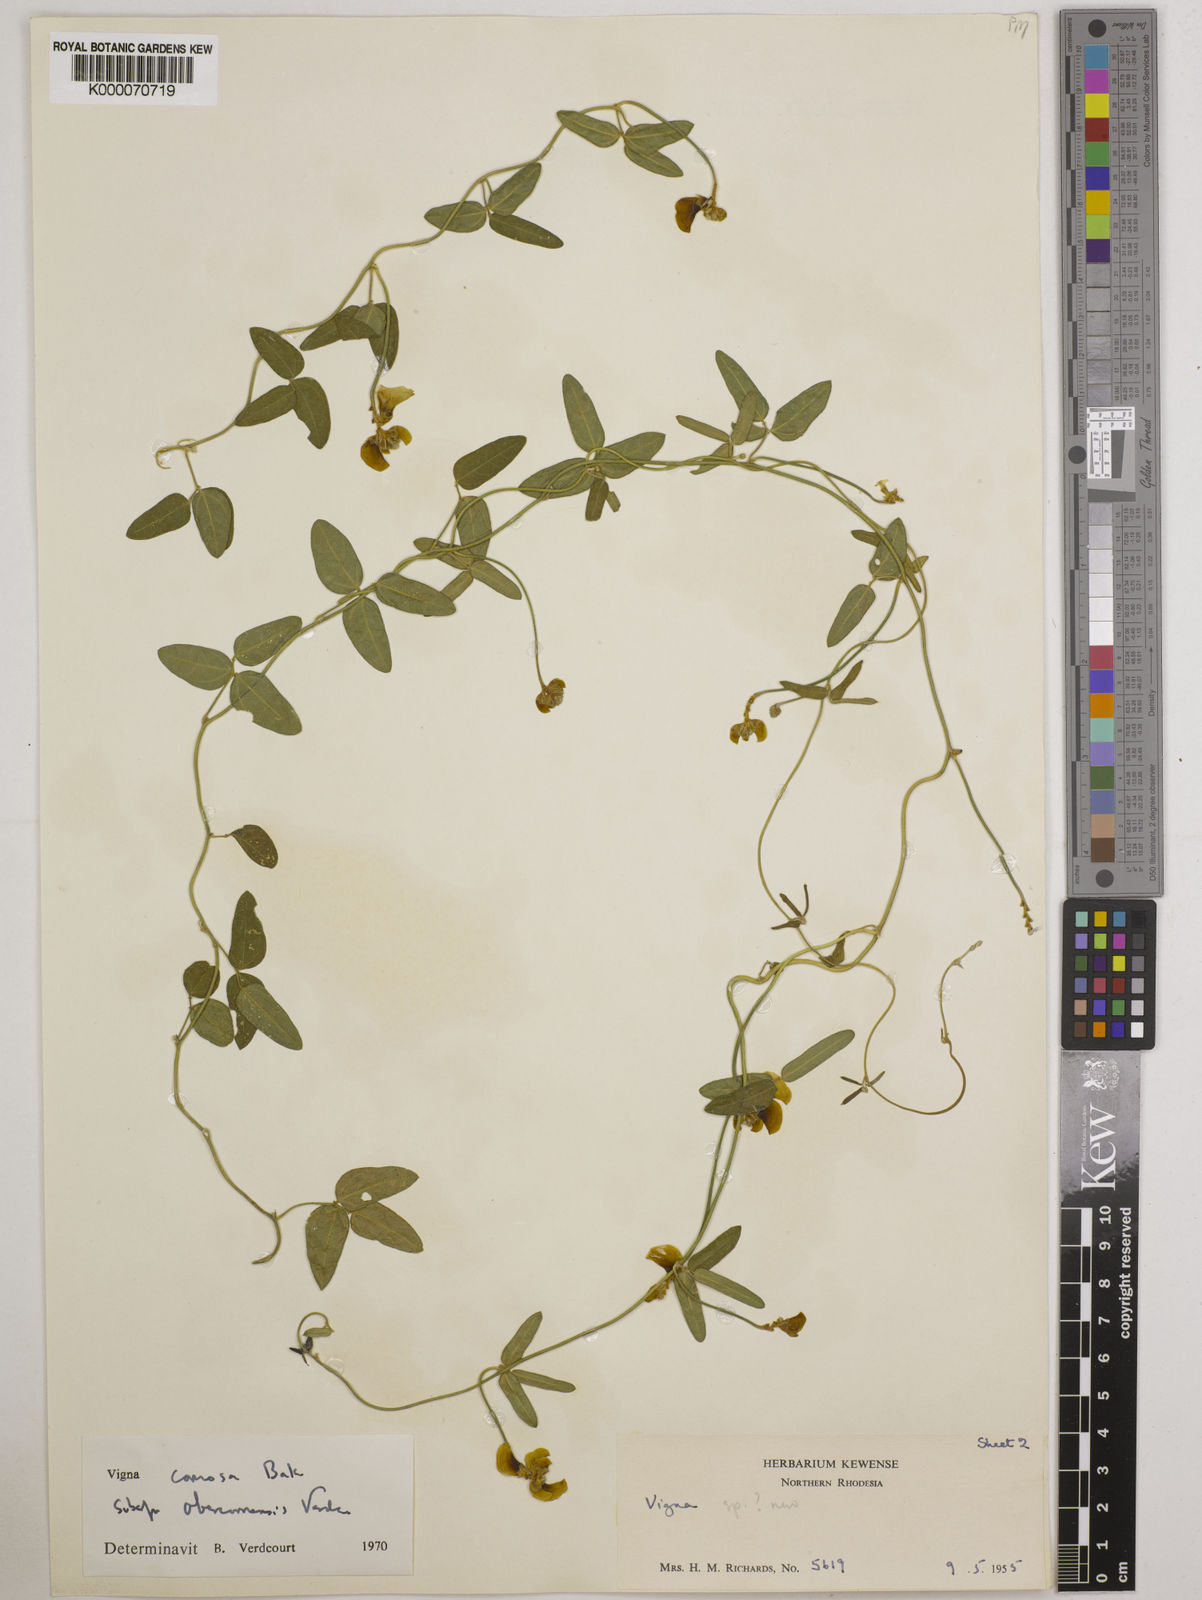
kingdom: Plantae
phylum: Tracheophyta
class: Magnoliopsida
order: Fabales
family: Fabaceae
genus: Vigna
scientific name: Vigna comosa
